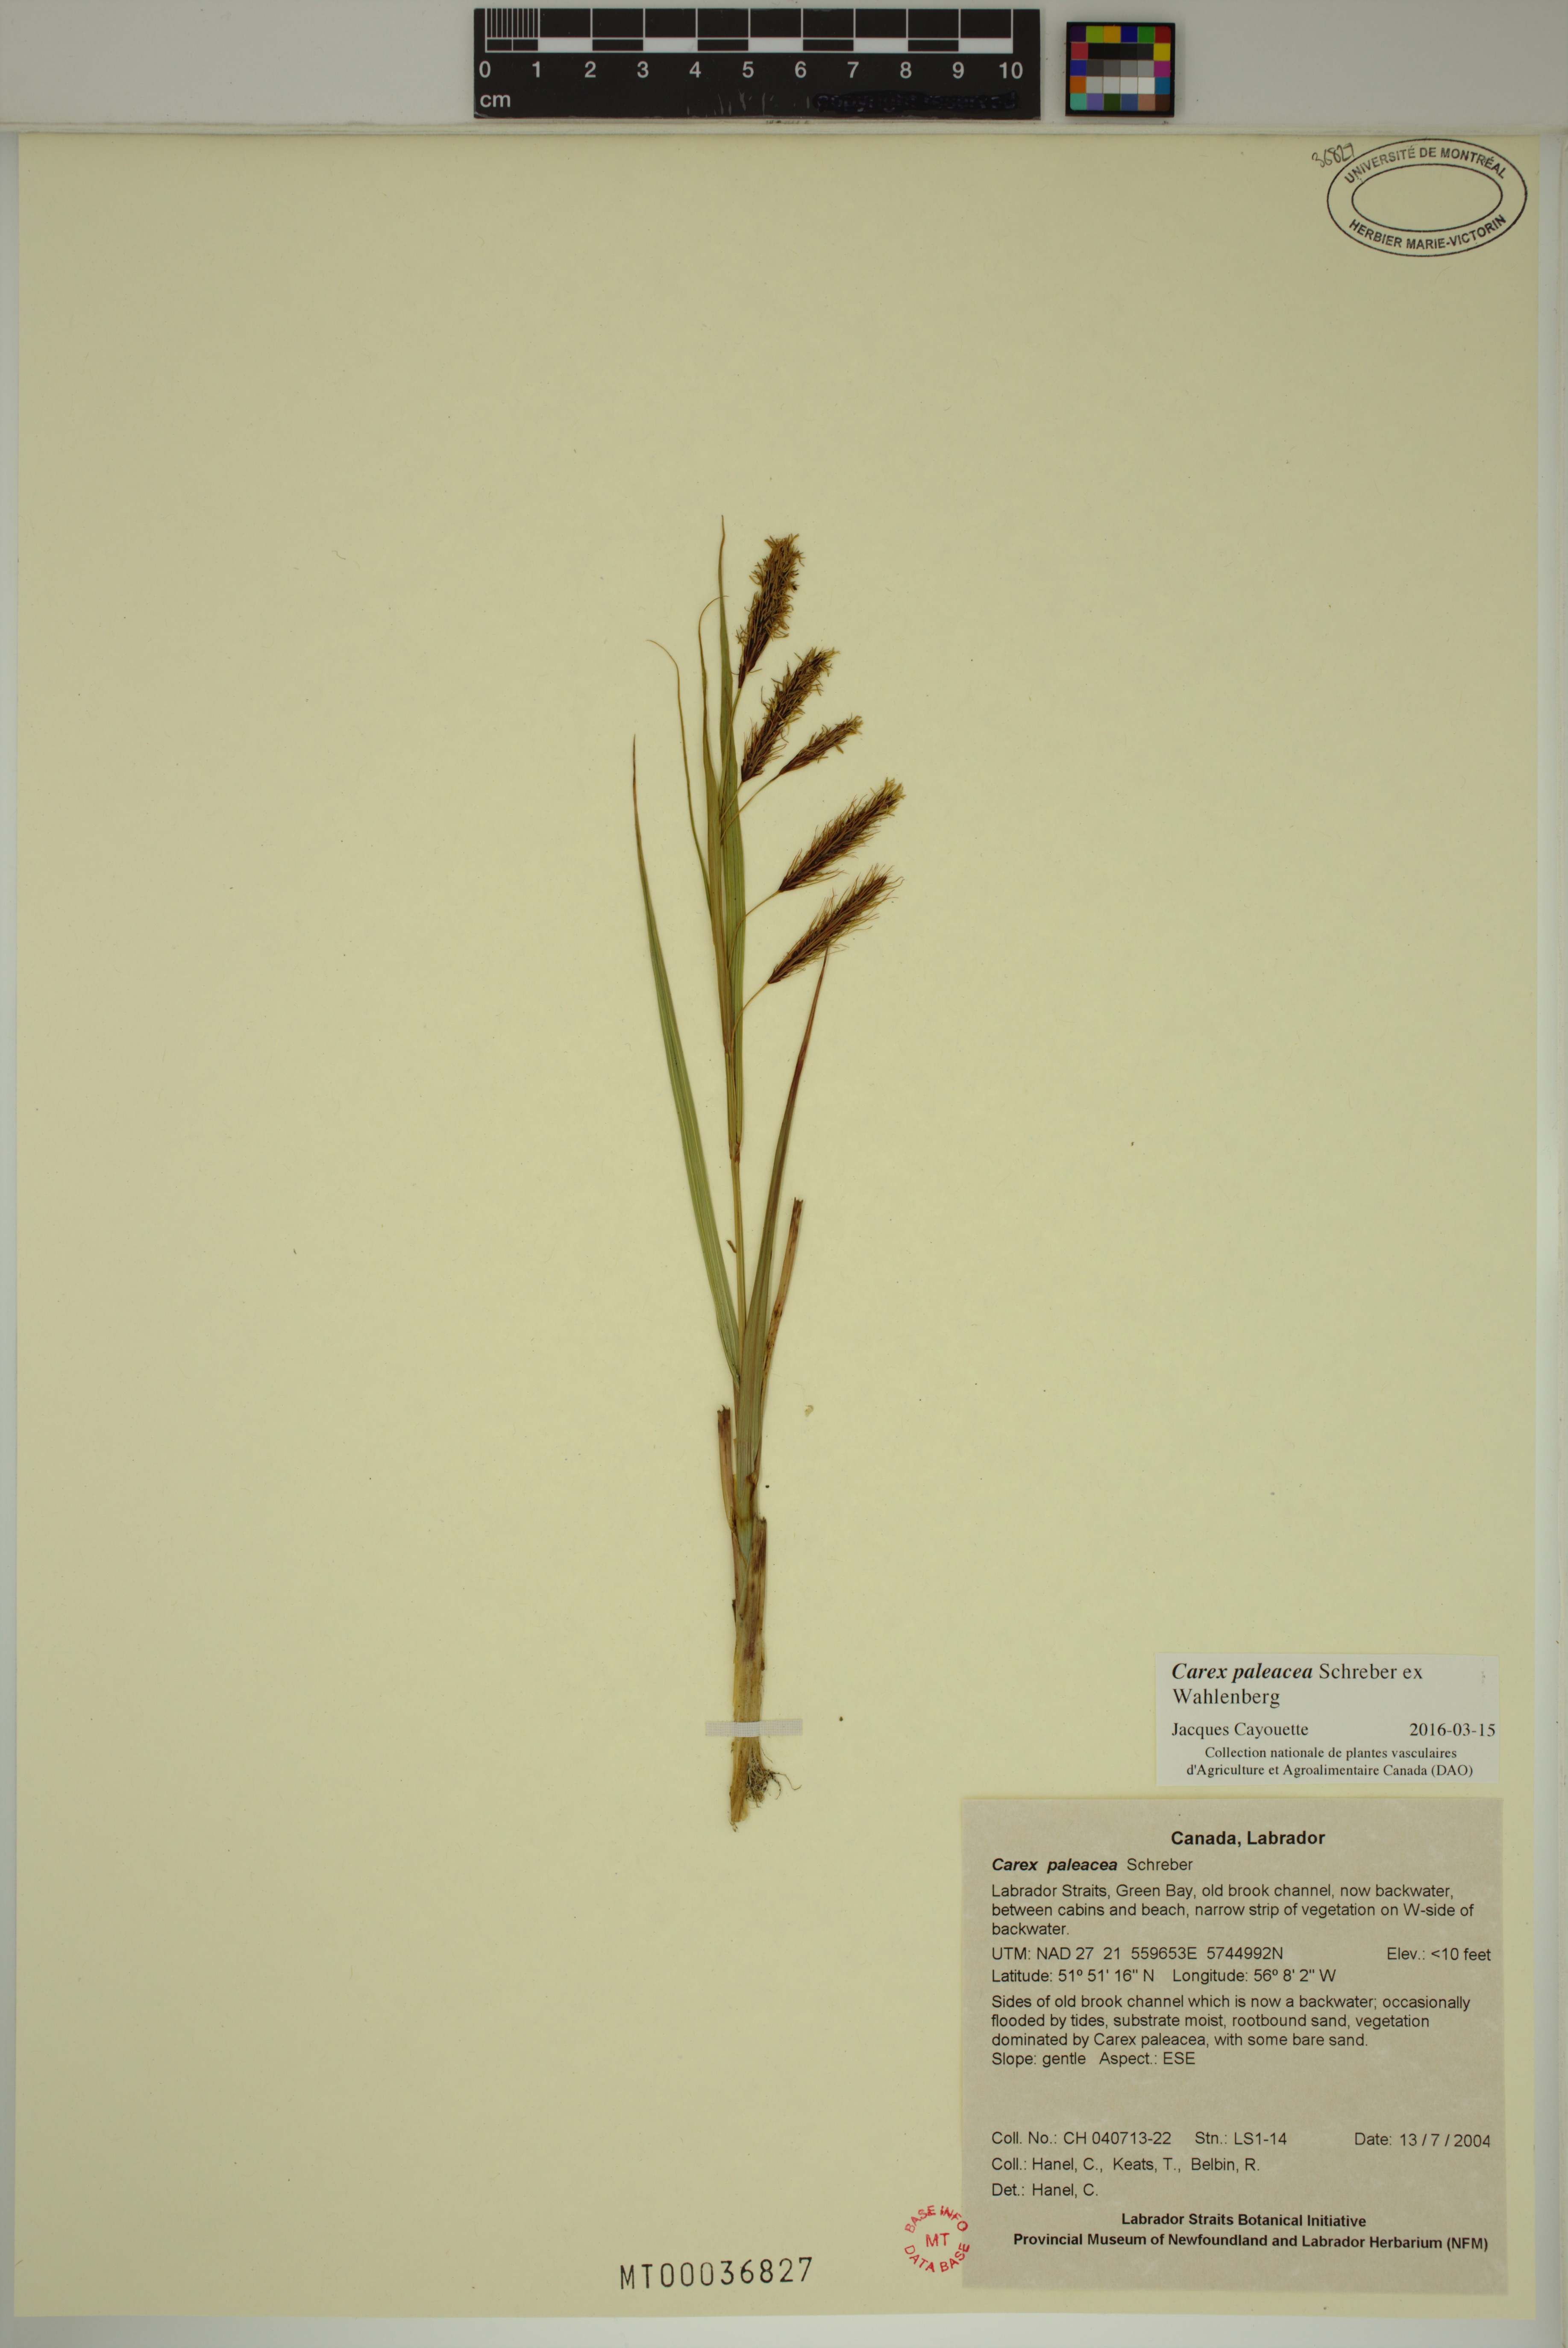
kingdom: Plantae
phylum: Tracheophyta
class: Liliopsida
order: Poales
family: Cyperaceae
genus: Carex
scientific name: Carex paleacea
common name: Chaffy sedge
